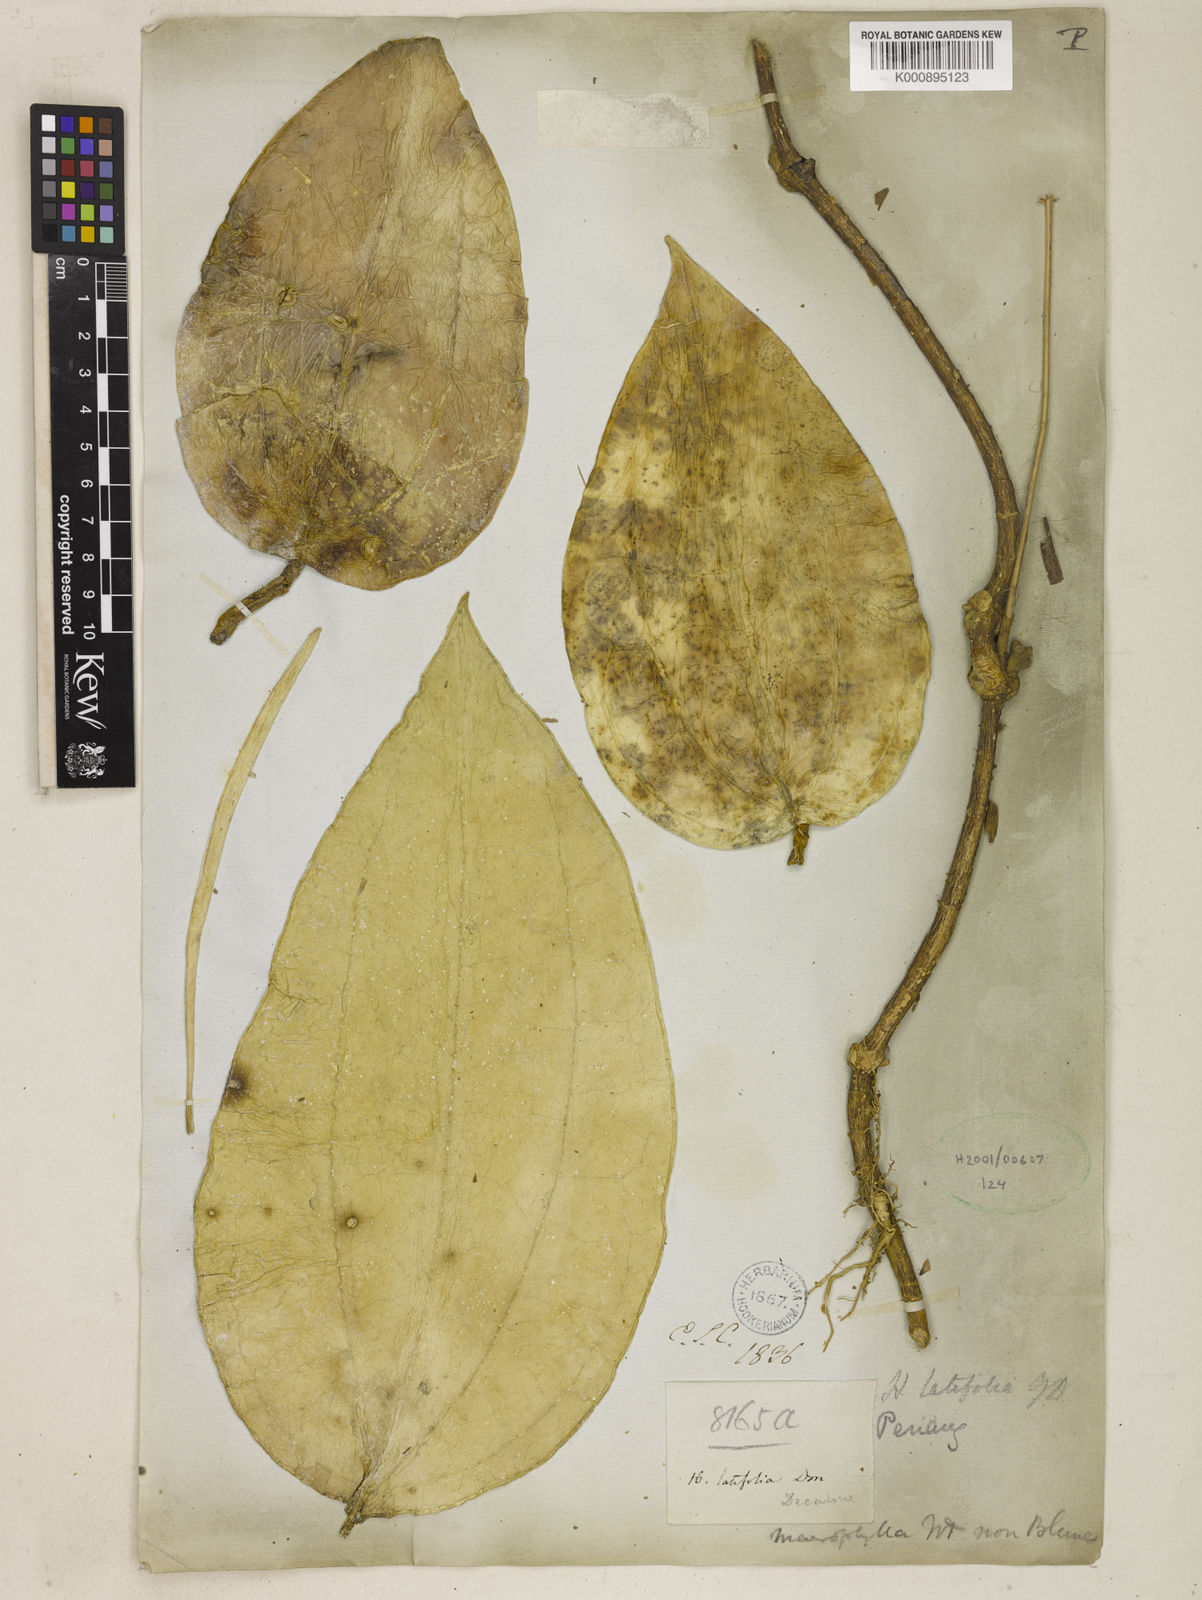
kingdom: Plantae
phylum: Tracheophyta
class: Magnoliopsida
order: Gentianales
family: Apocynaceae
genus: Hoya
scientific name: Hoya latifolia
